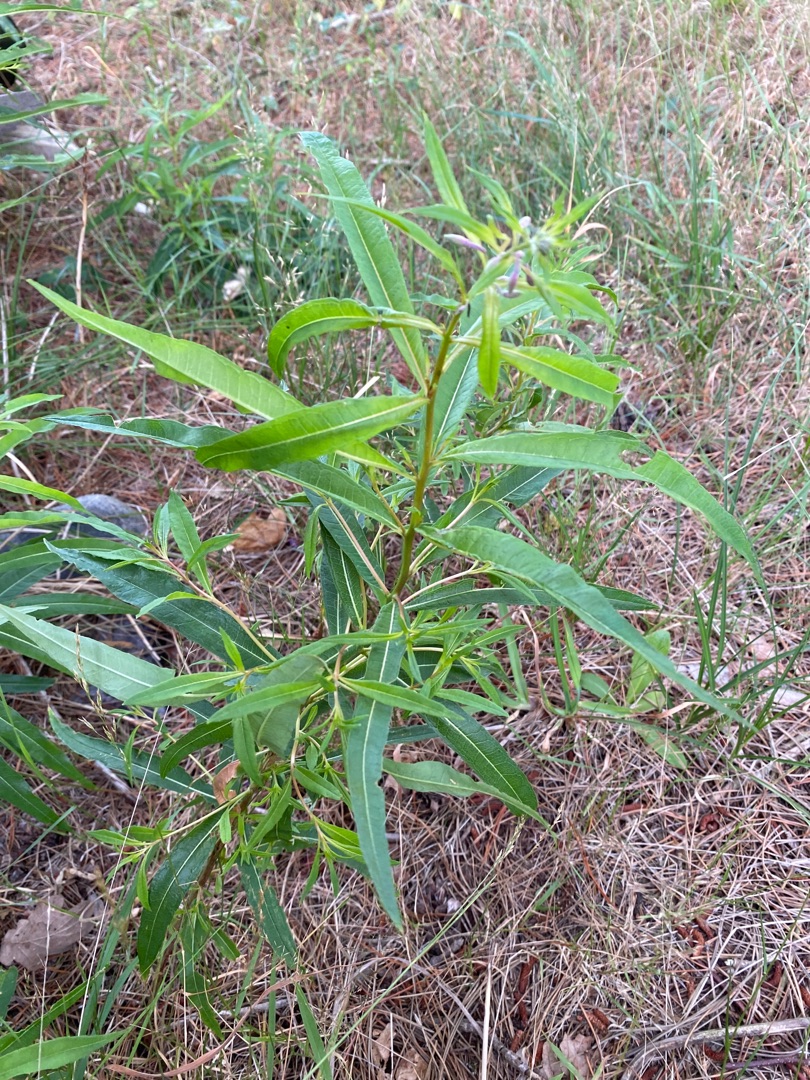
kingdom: Plantae
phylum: Tracheophyta
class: Magnoliopsida
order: Myrtales
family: Onagraceae
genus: Chamaenerion
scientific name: Chamaenerion angustifolium
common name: Gederams
